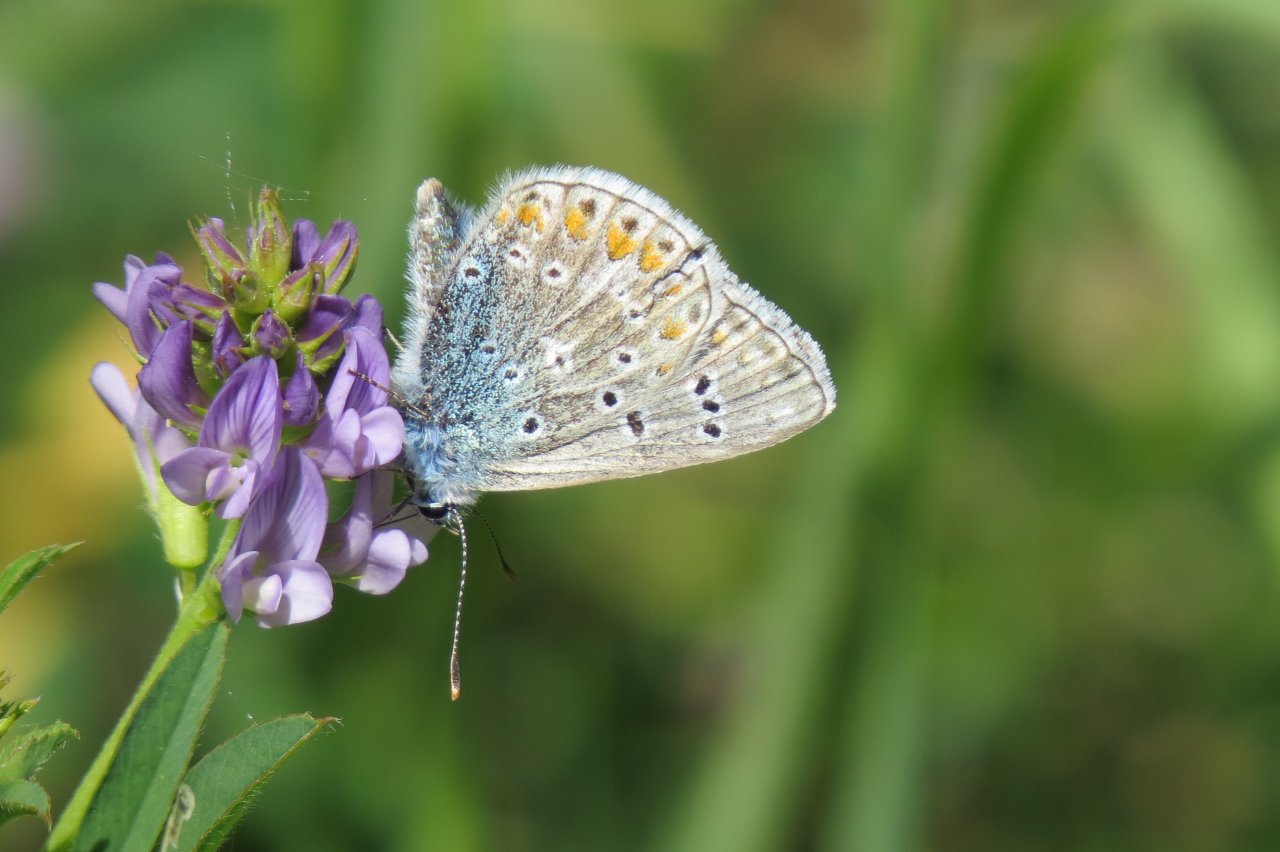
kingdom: Animalia
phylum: Arthropoda
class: Insecta
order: Lepidoptera
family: Lycaenidae
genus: Polyommatus
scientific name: Polyommatus icarus
